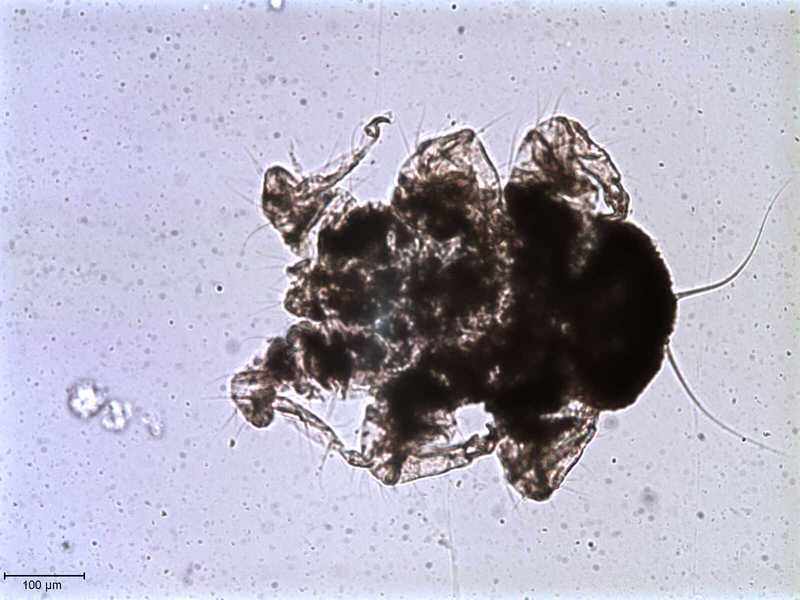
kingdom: Animalia
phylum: Arthropoda
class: Arachnida
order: Mesostigmata
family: Halarachnidae
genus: Orthohalarachne
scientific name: Orthohalarachne letalis
